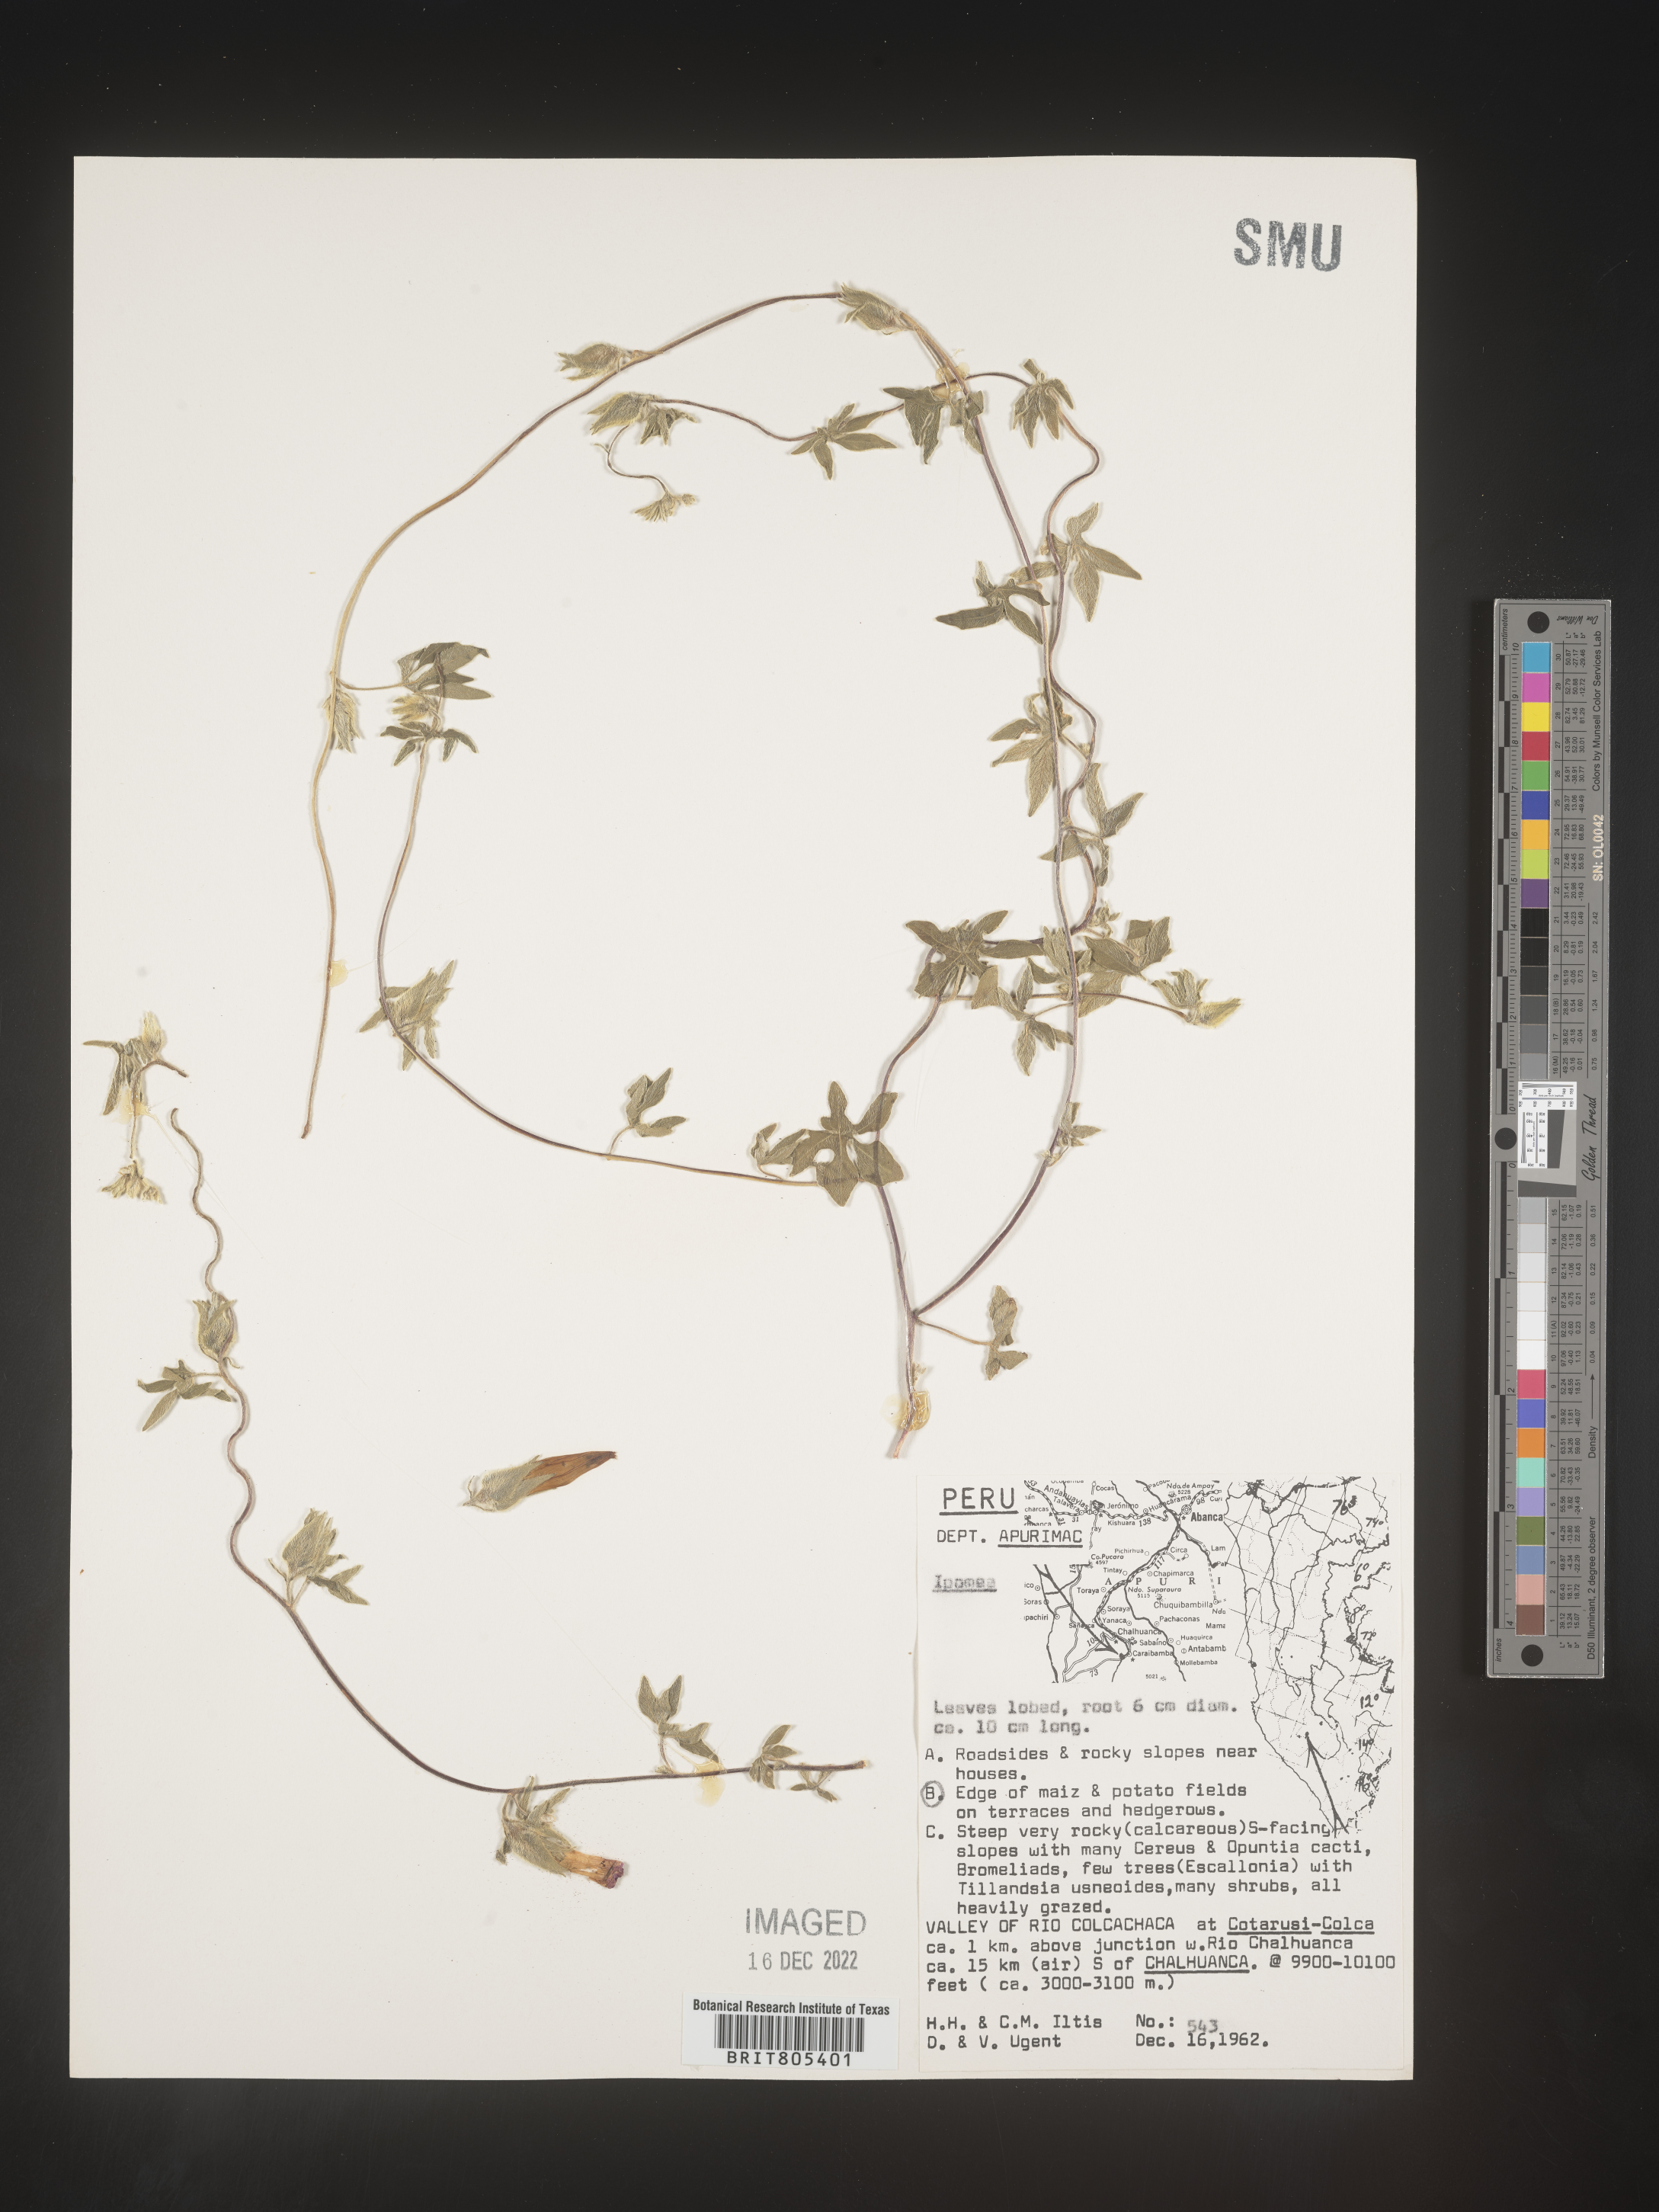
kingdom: Plantae
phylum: Tracheophyta
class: Magnoliopsida
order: Solanales
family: Convolvulaceae
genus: Ipomoea
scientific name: Ipomoea
